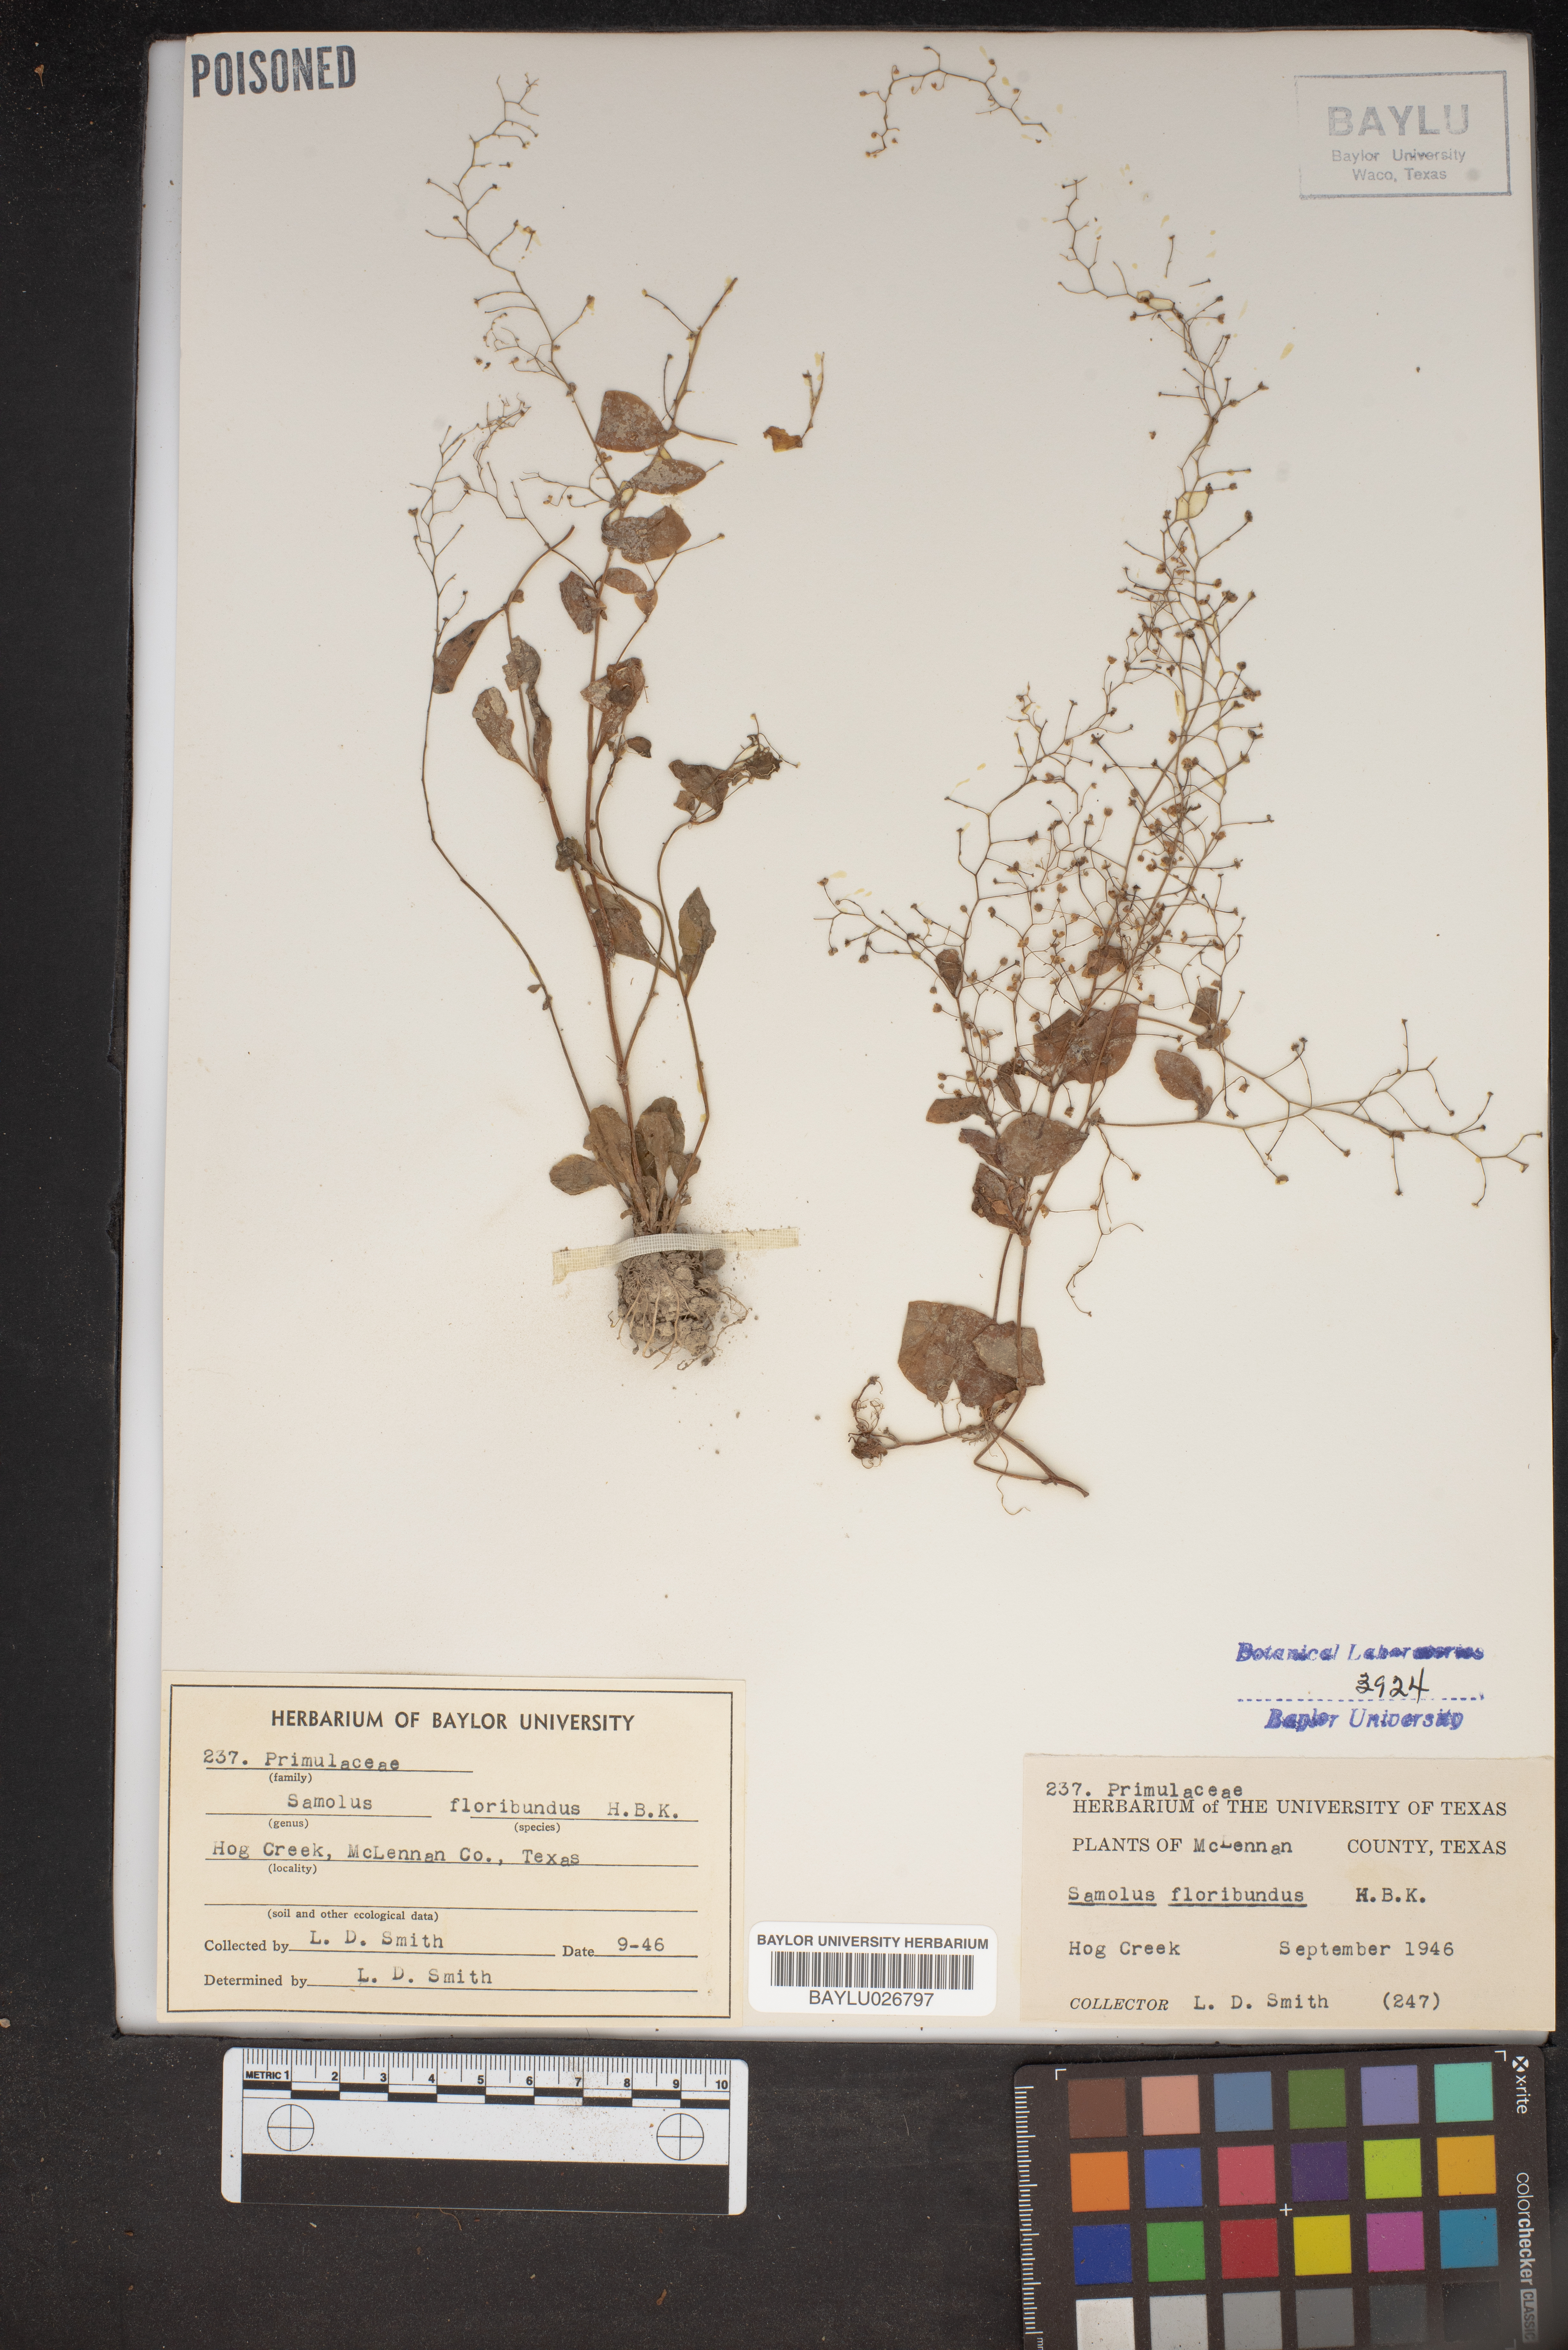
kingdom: Plantae
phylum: Tracheophyta
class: Magnoliopsida
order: Ericales
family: Primulaceae
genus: Samolus
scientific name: Samolus parviflorus
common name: False water pimpernel
